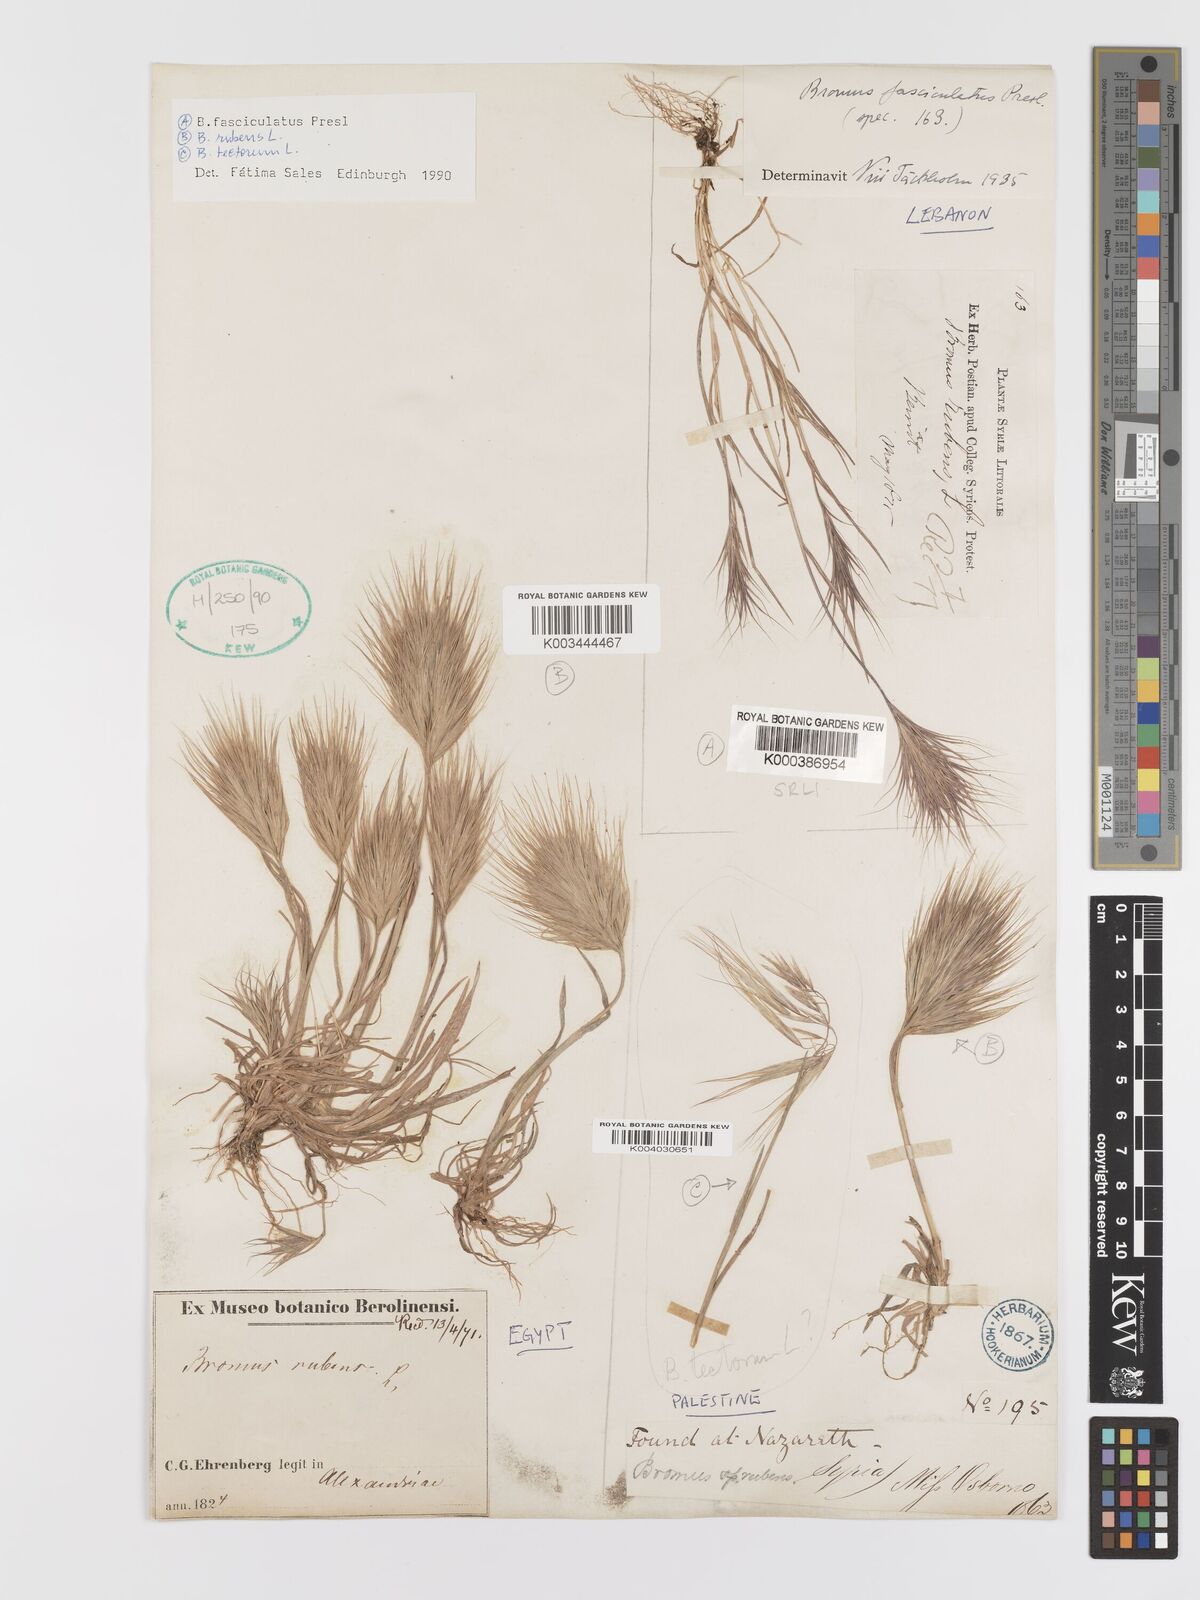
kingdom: Plantae
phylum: Tracheophyta
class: Liliopsida
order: Poales
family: Poaceae
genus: Bromus
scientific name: Bromus fasciculatus
